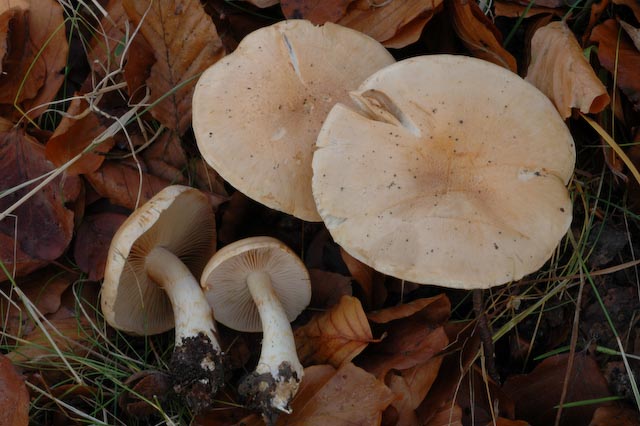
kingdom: Fungi
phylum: Basidiomycota
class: Agaricomycetes
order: Agaricales
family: Cortinariaceae
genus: Phlegmacium
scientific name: Phlegmacium cliduchus
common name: majs-slørhat
